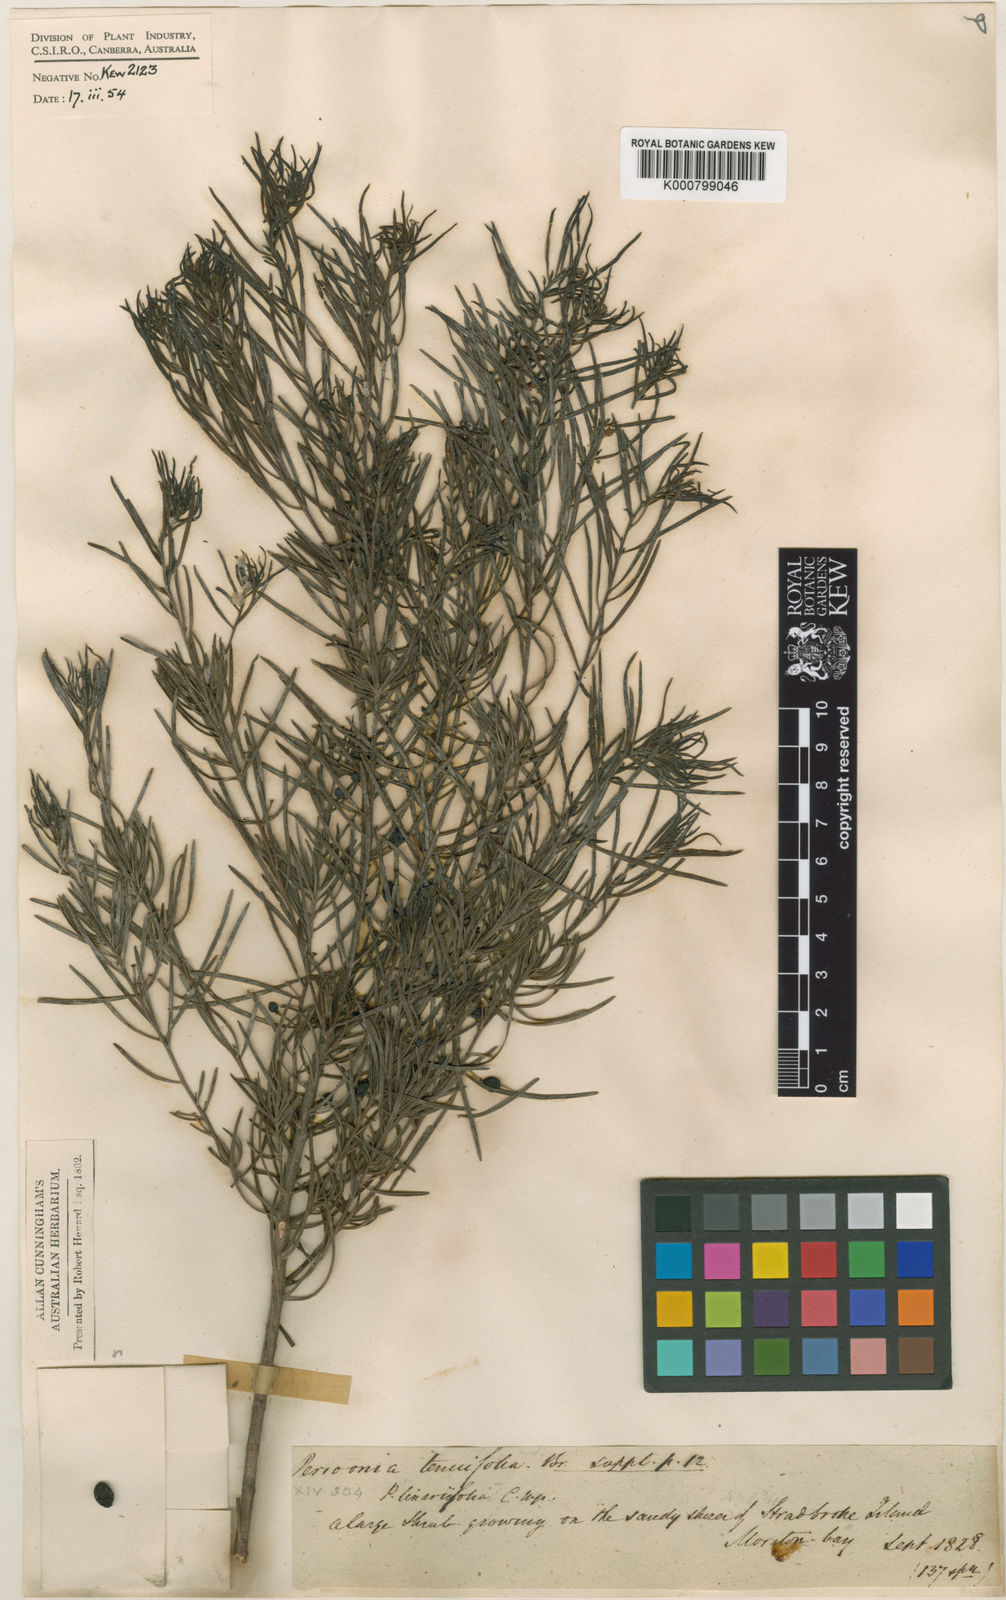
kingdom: Plantae
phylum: Tracheophyta
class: Magnoliopsida
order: Proteales
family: Proteaceae
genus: Persoonia
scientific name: Persoonia virgata
